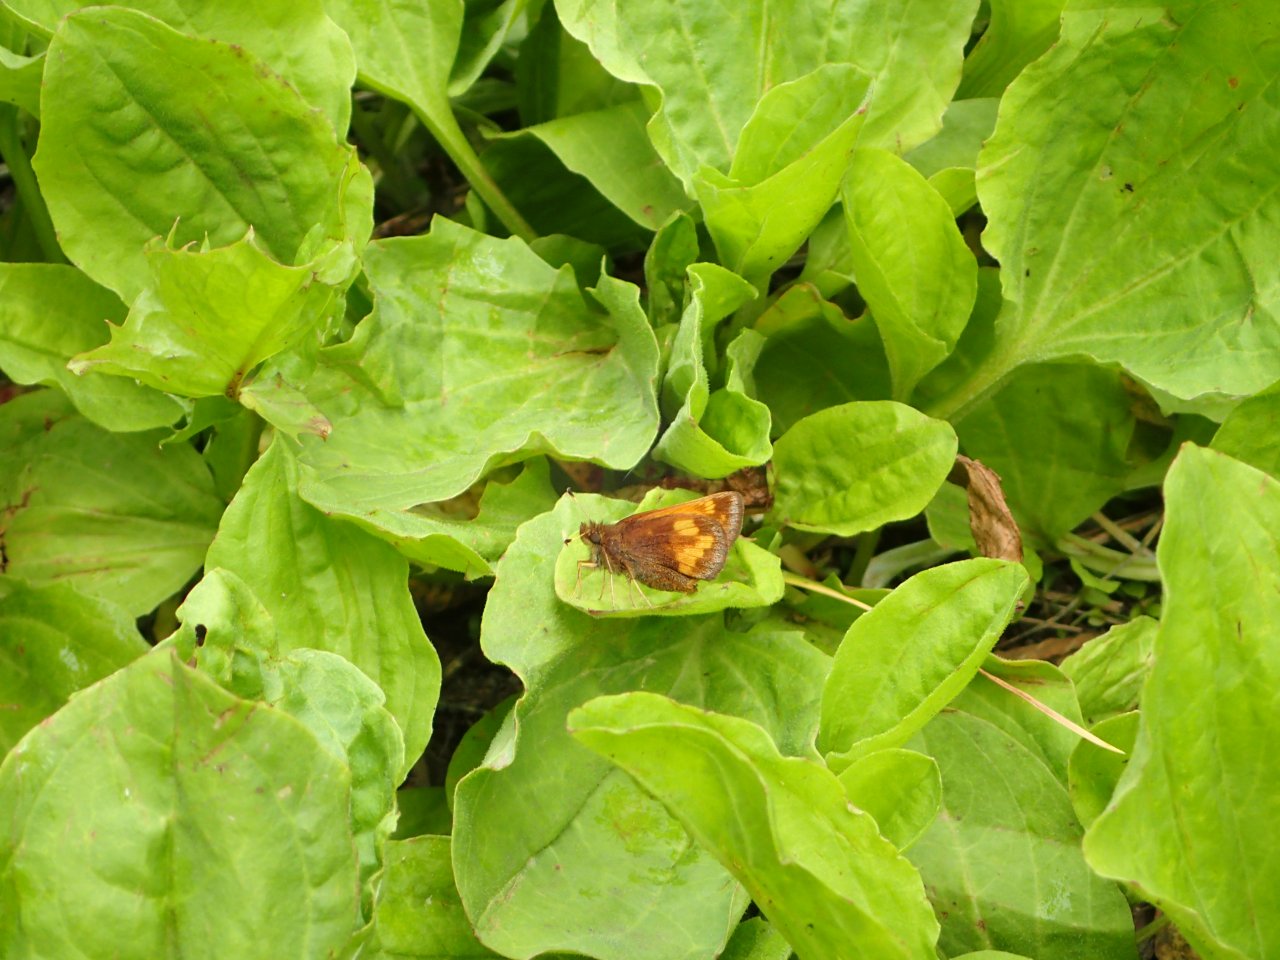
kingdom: Animalia
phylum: Arthropoda
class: Insecta
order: Lepidoptera
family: Hesperiidae
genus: Lon
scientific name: Lon hobomok
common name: Hobomok Skipper
